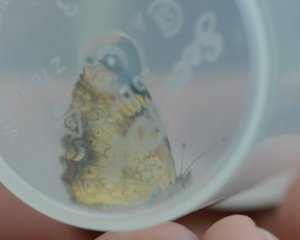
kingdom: Animalia
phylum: Arthropoda
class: Insecta
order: Lepidoptera
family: Nymphalidae
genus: Phyciodes
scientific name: Phyciodes tharos
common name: Northern Crescent
